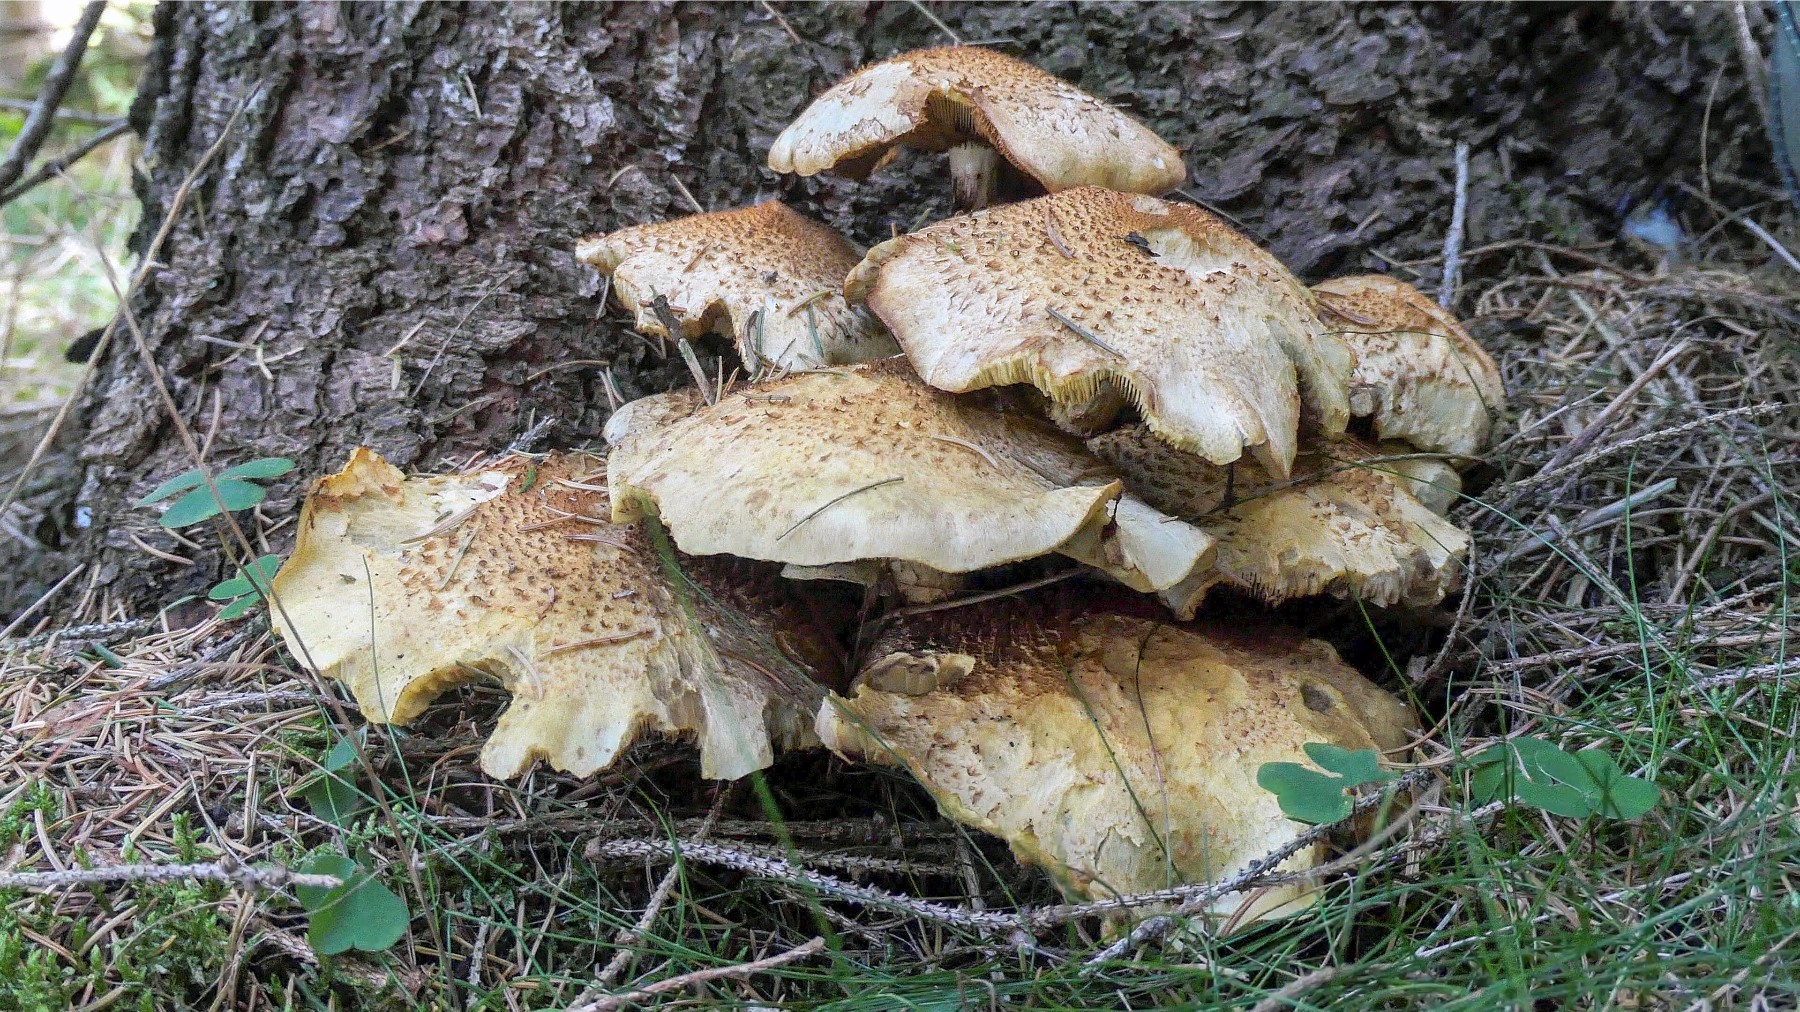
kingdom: Fungi
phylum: Basidiomycota
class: Agaricomycetes
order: Agaricales
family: Strophariaceae
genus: Pholiota
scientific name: Pholiota squarrosa
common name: krumskællet skælhat
